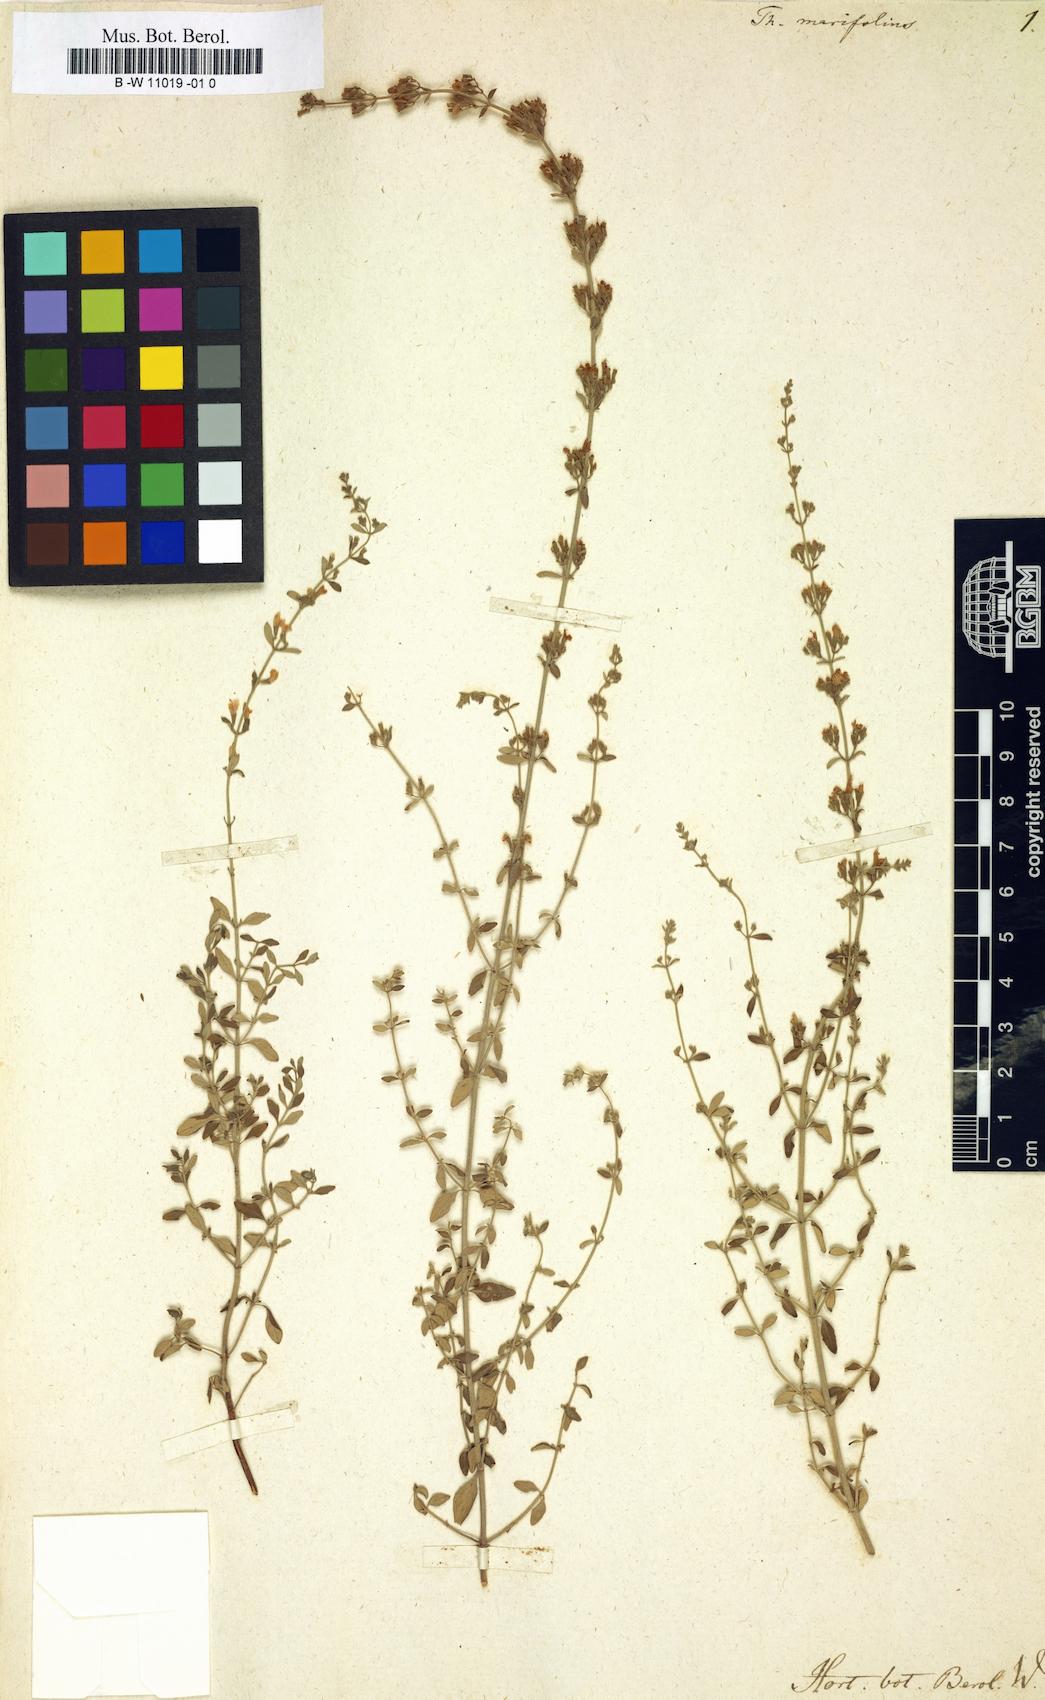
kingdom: Plantae
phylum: Tracheophyta
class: Magnoliopsida
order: Lamiales
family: Lamiaceae
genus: Clinopodium
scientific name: Clinopodium serpyllifolium
